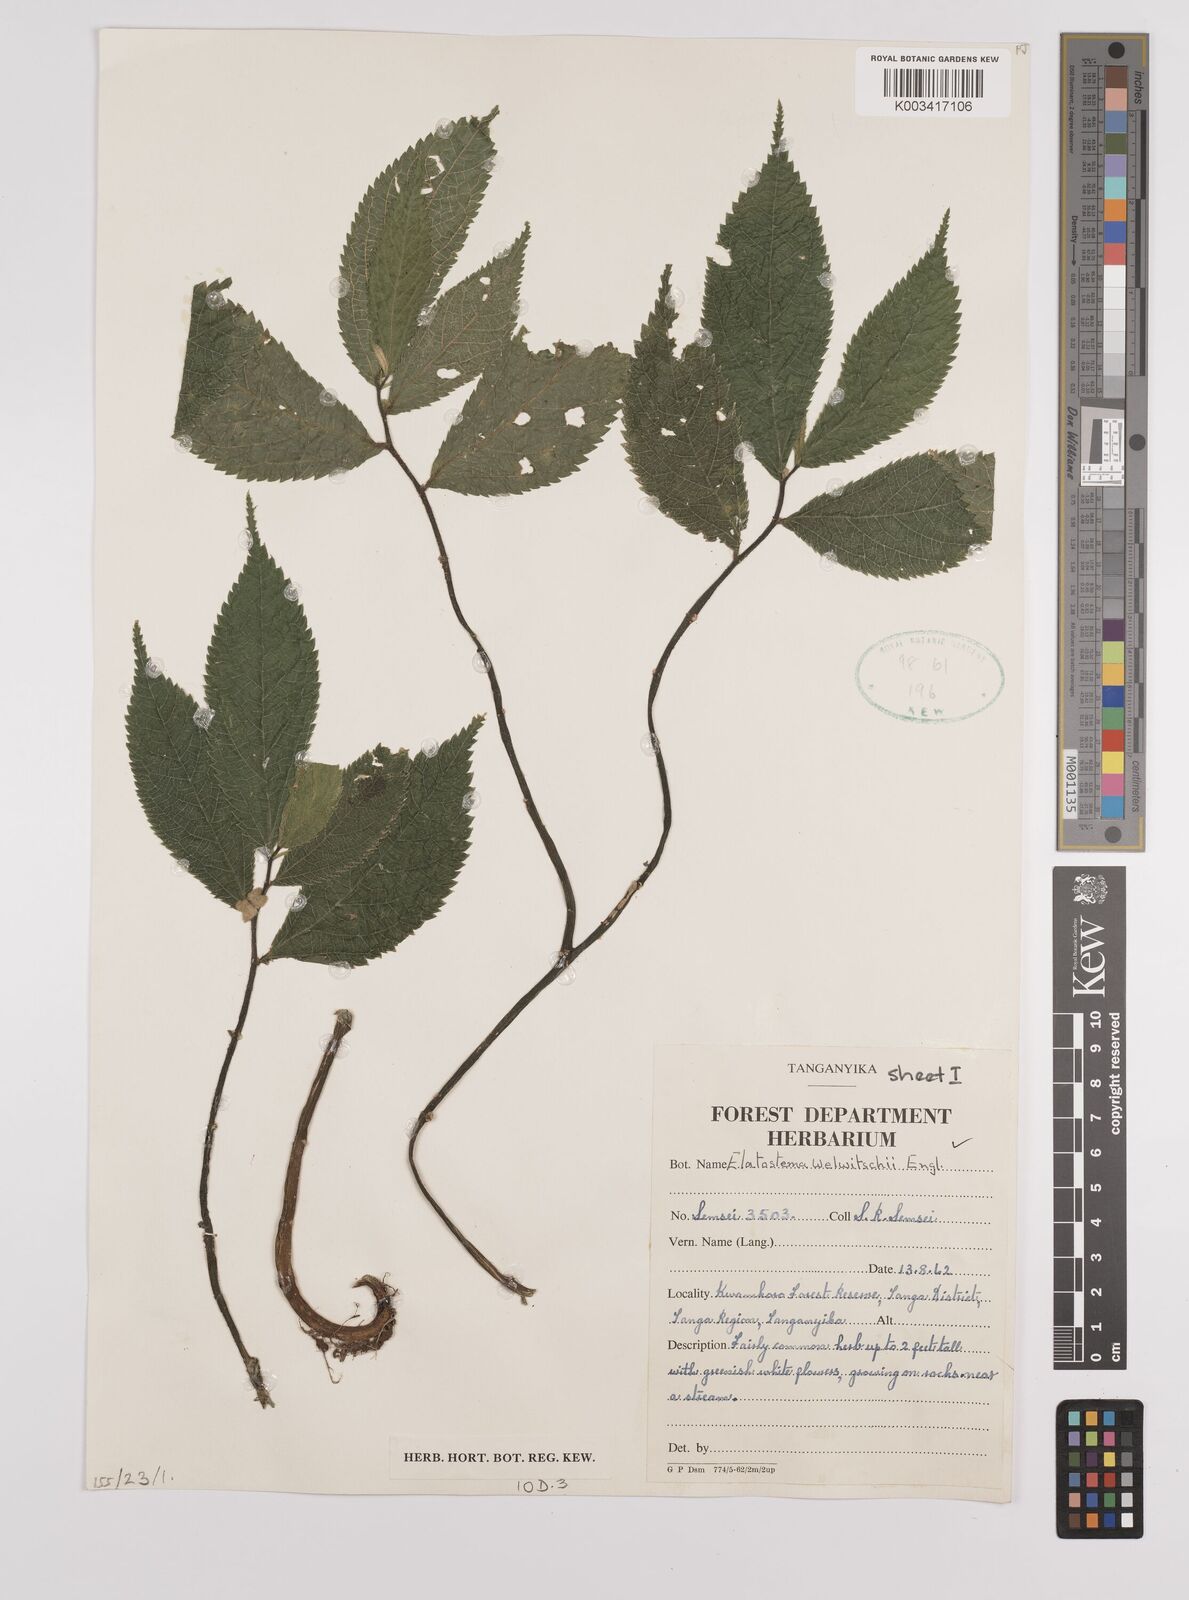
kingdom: Plantae
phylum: Tracheophyta
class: Magnoliopsida
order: Rosales
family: Urticaceae
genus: Elatostema
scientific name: Elatostema welwitschii
